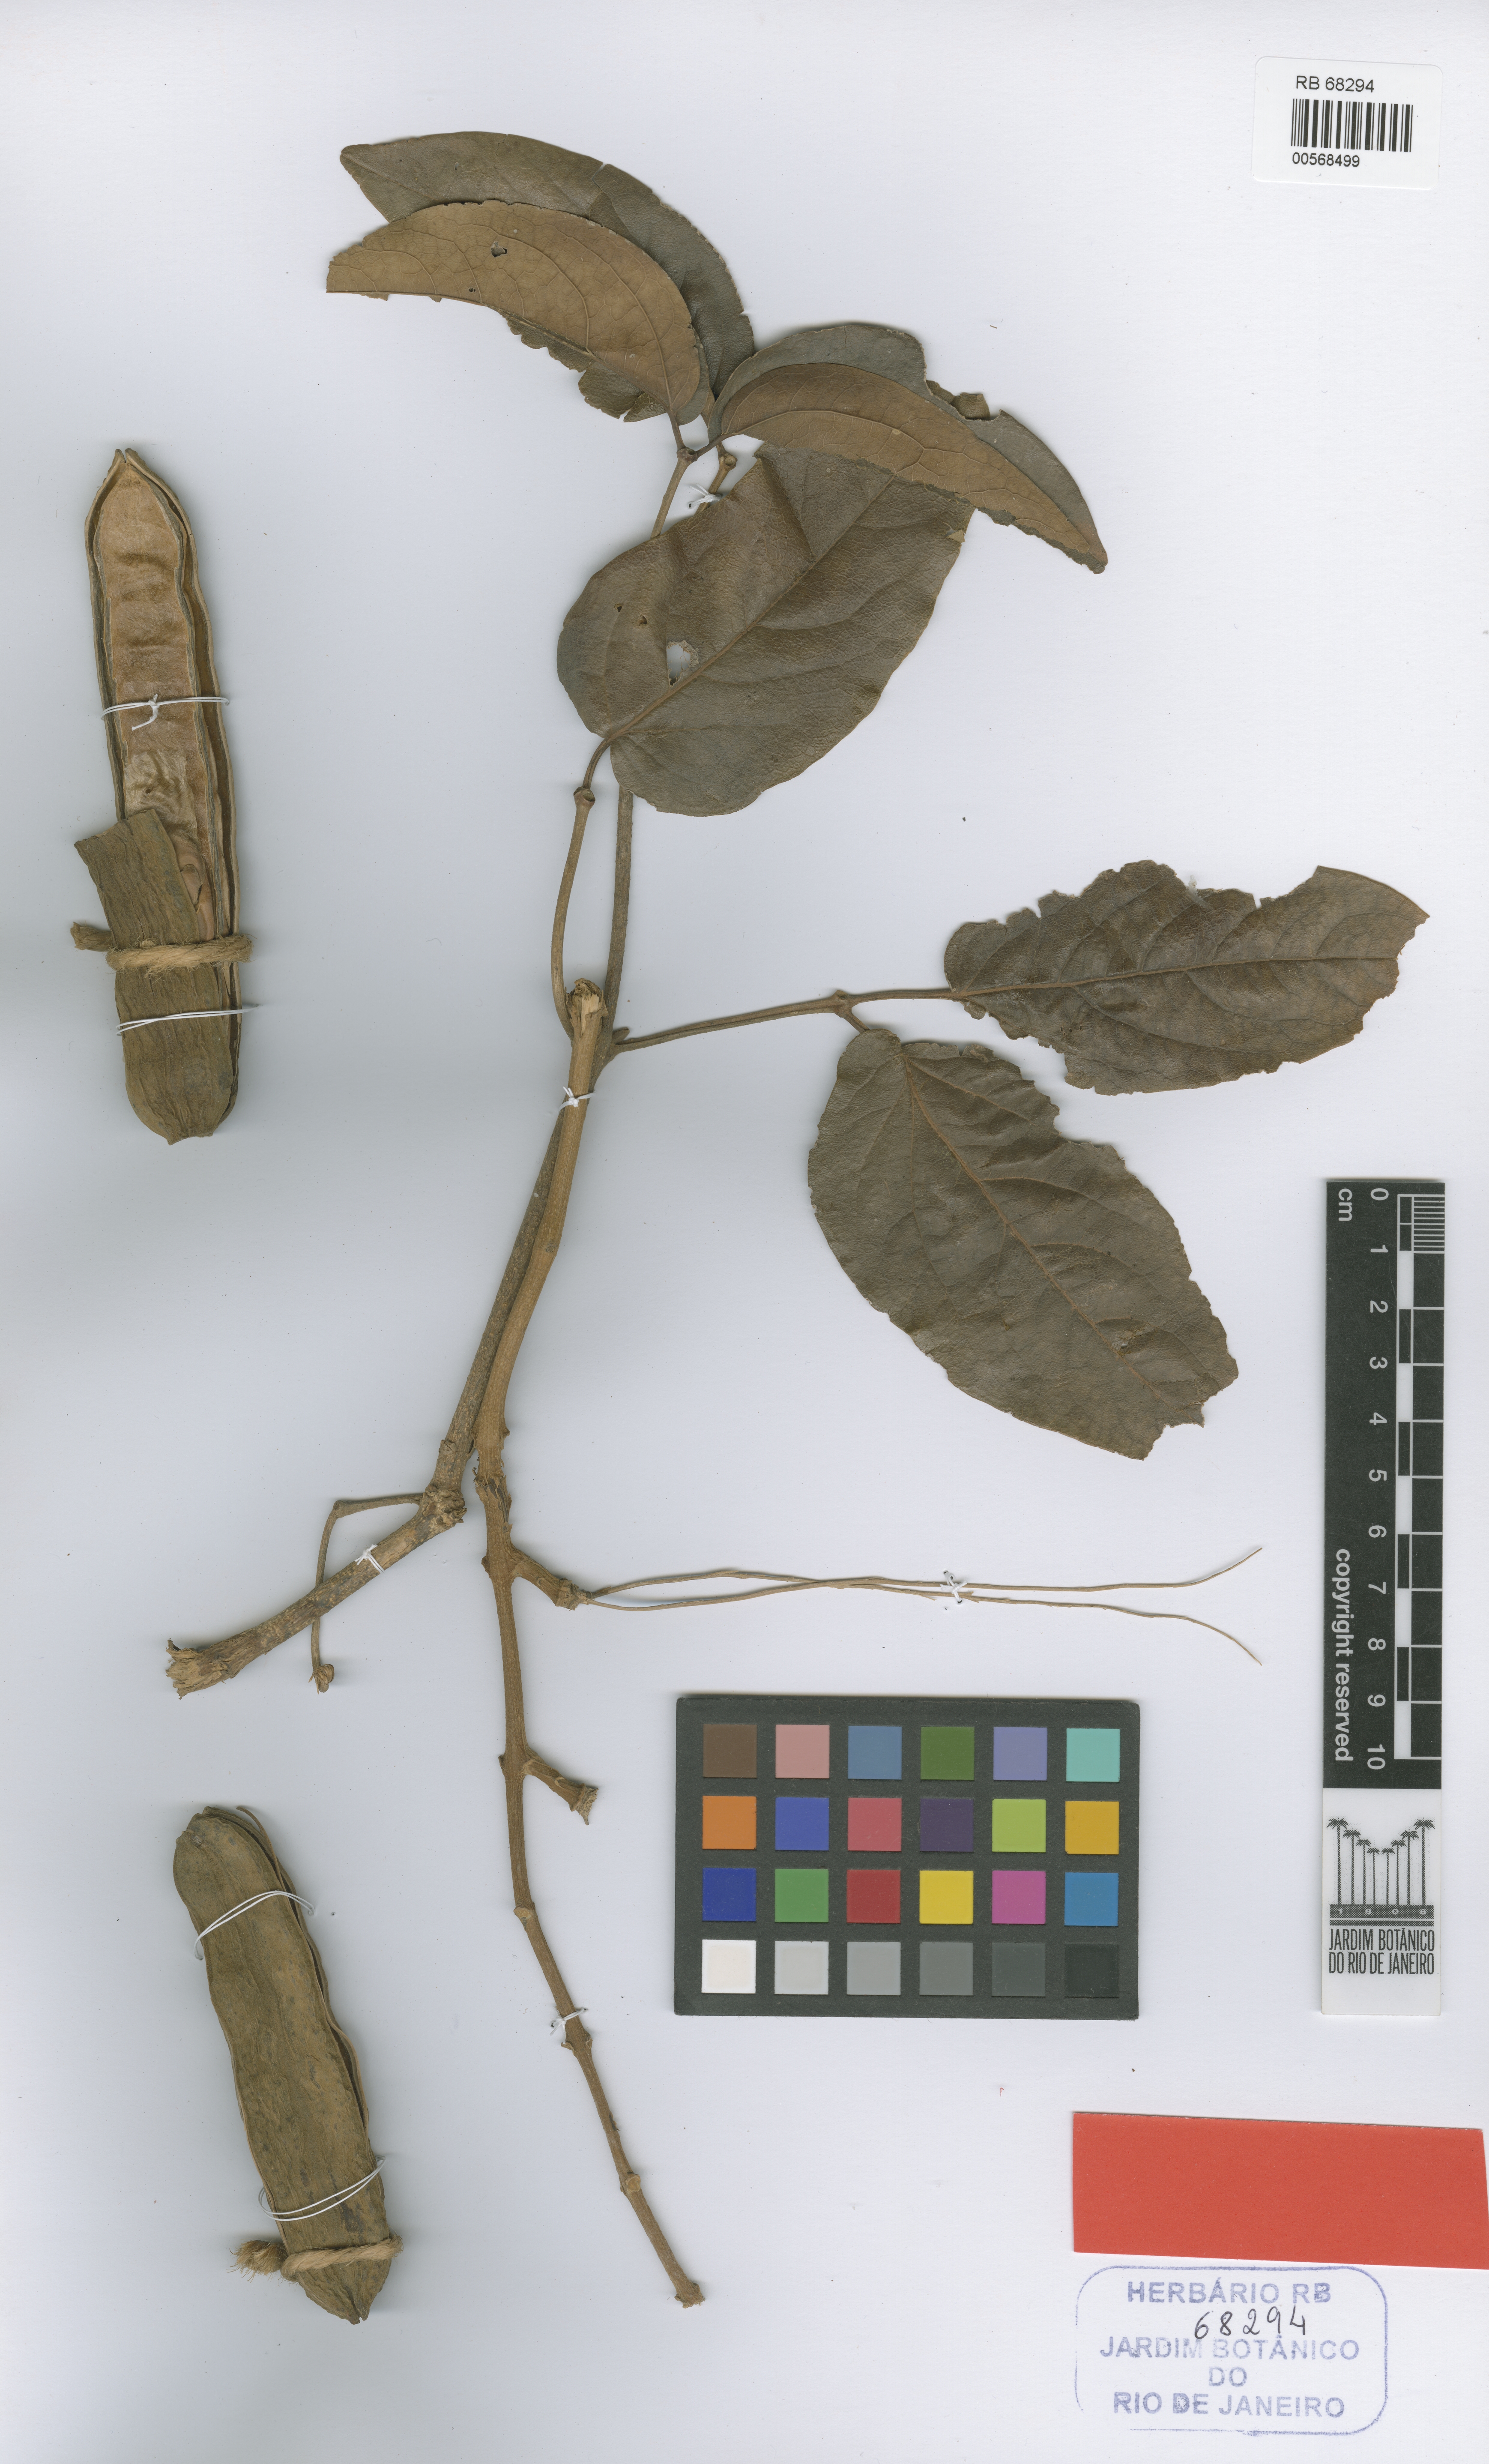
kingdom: Plantae
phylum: Tracheophyta
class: Magnoliopsida
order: Lamiales
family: Bignoniaceae
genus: Adenocalymma
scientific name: Adenocalymma apparicianum
